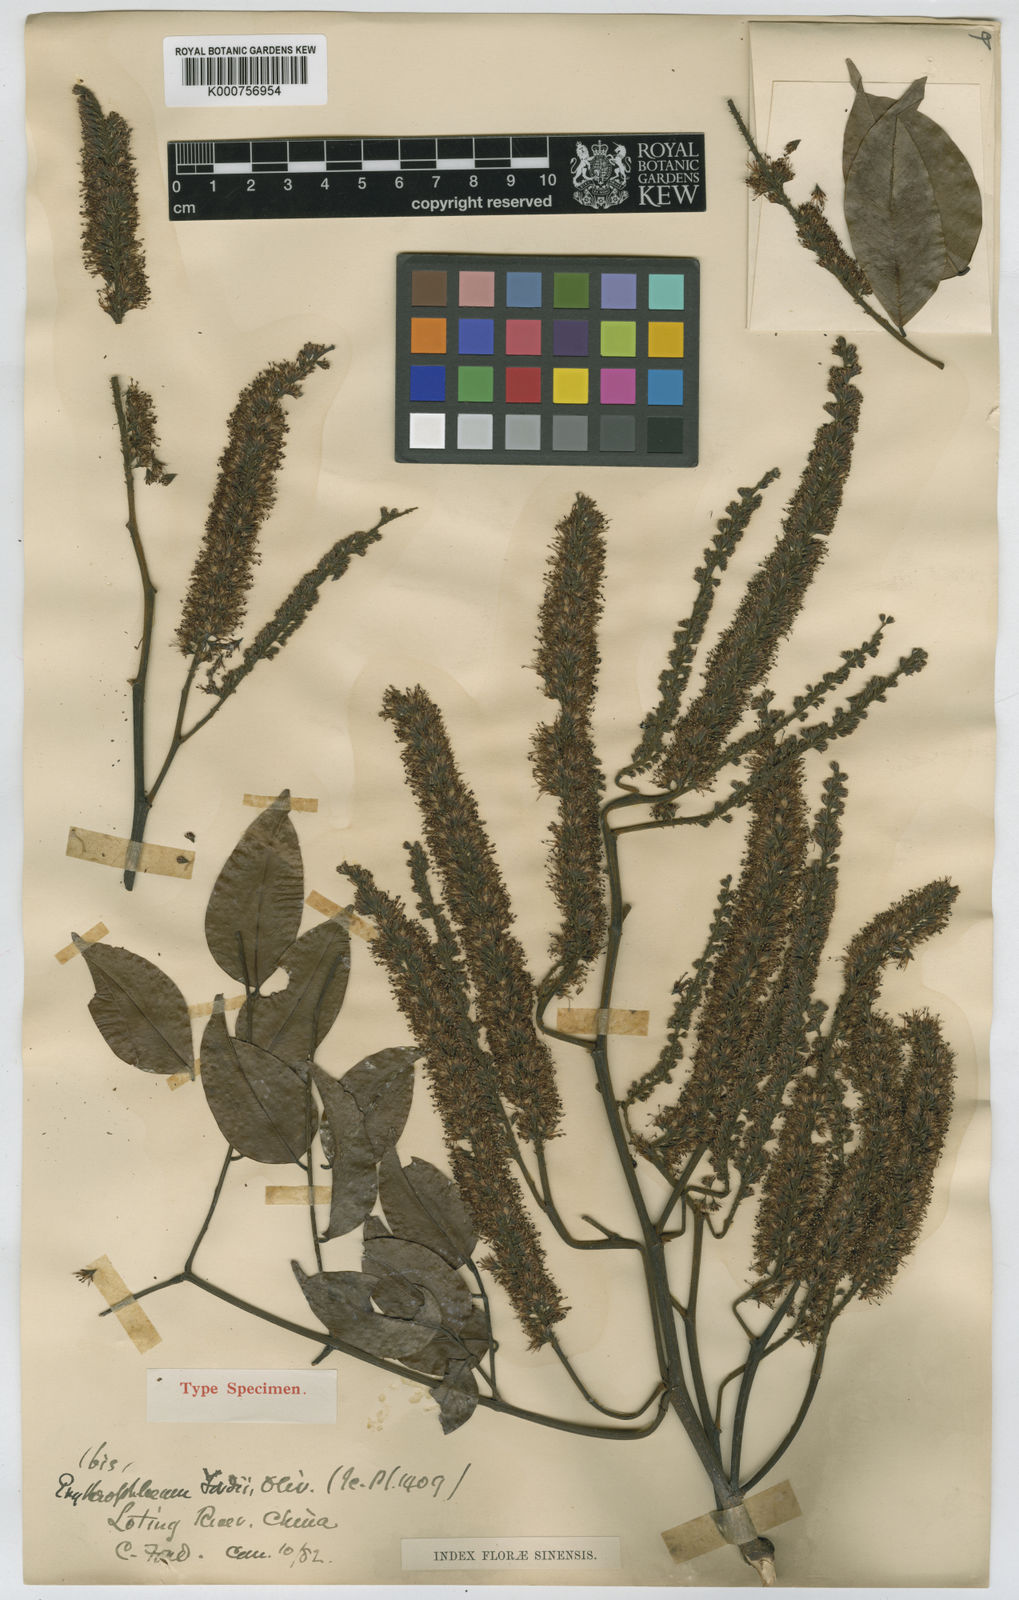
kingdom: Plantae
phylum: Tracheophyta
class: Magnoliopsida
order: Fabales
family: Fabaceae
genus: Erythrophleum
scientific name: Erythrophleum fordii
